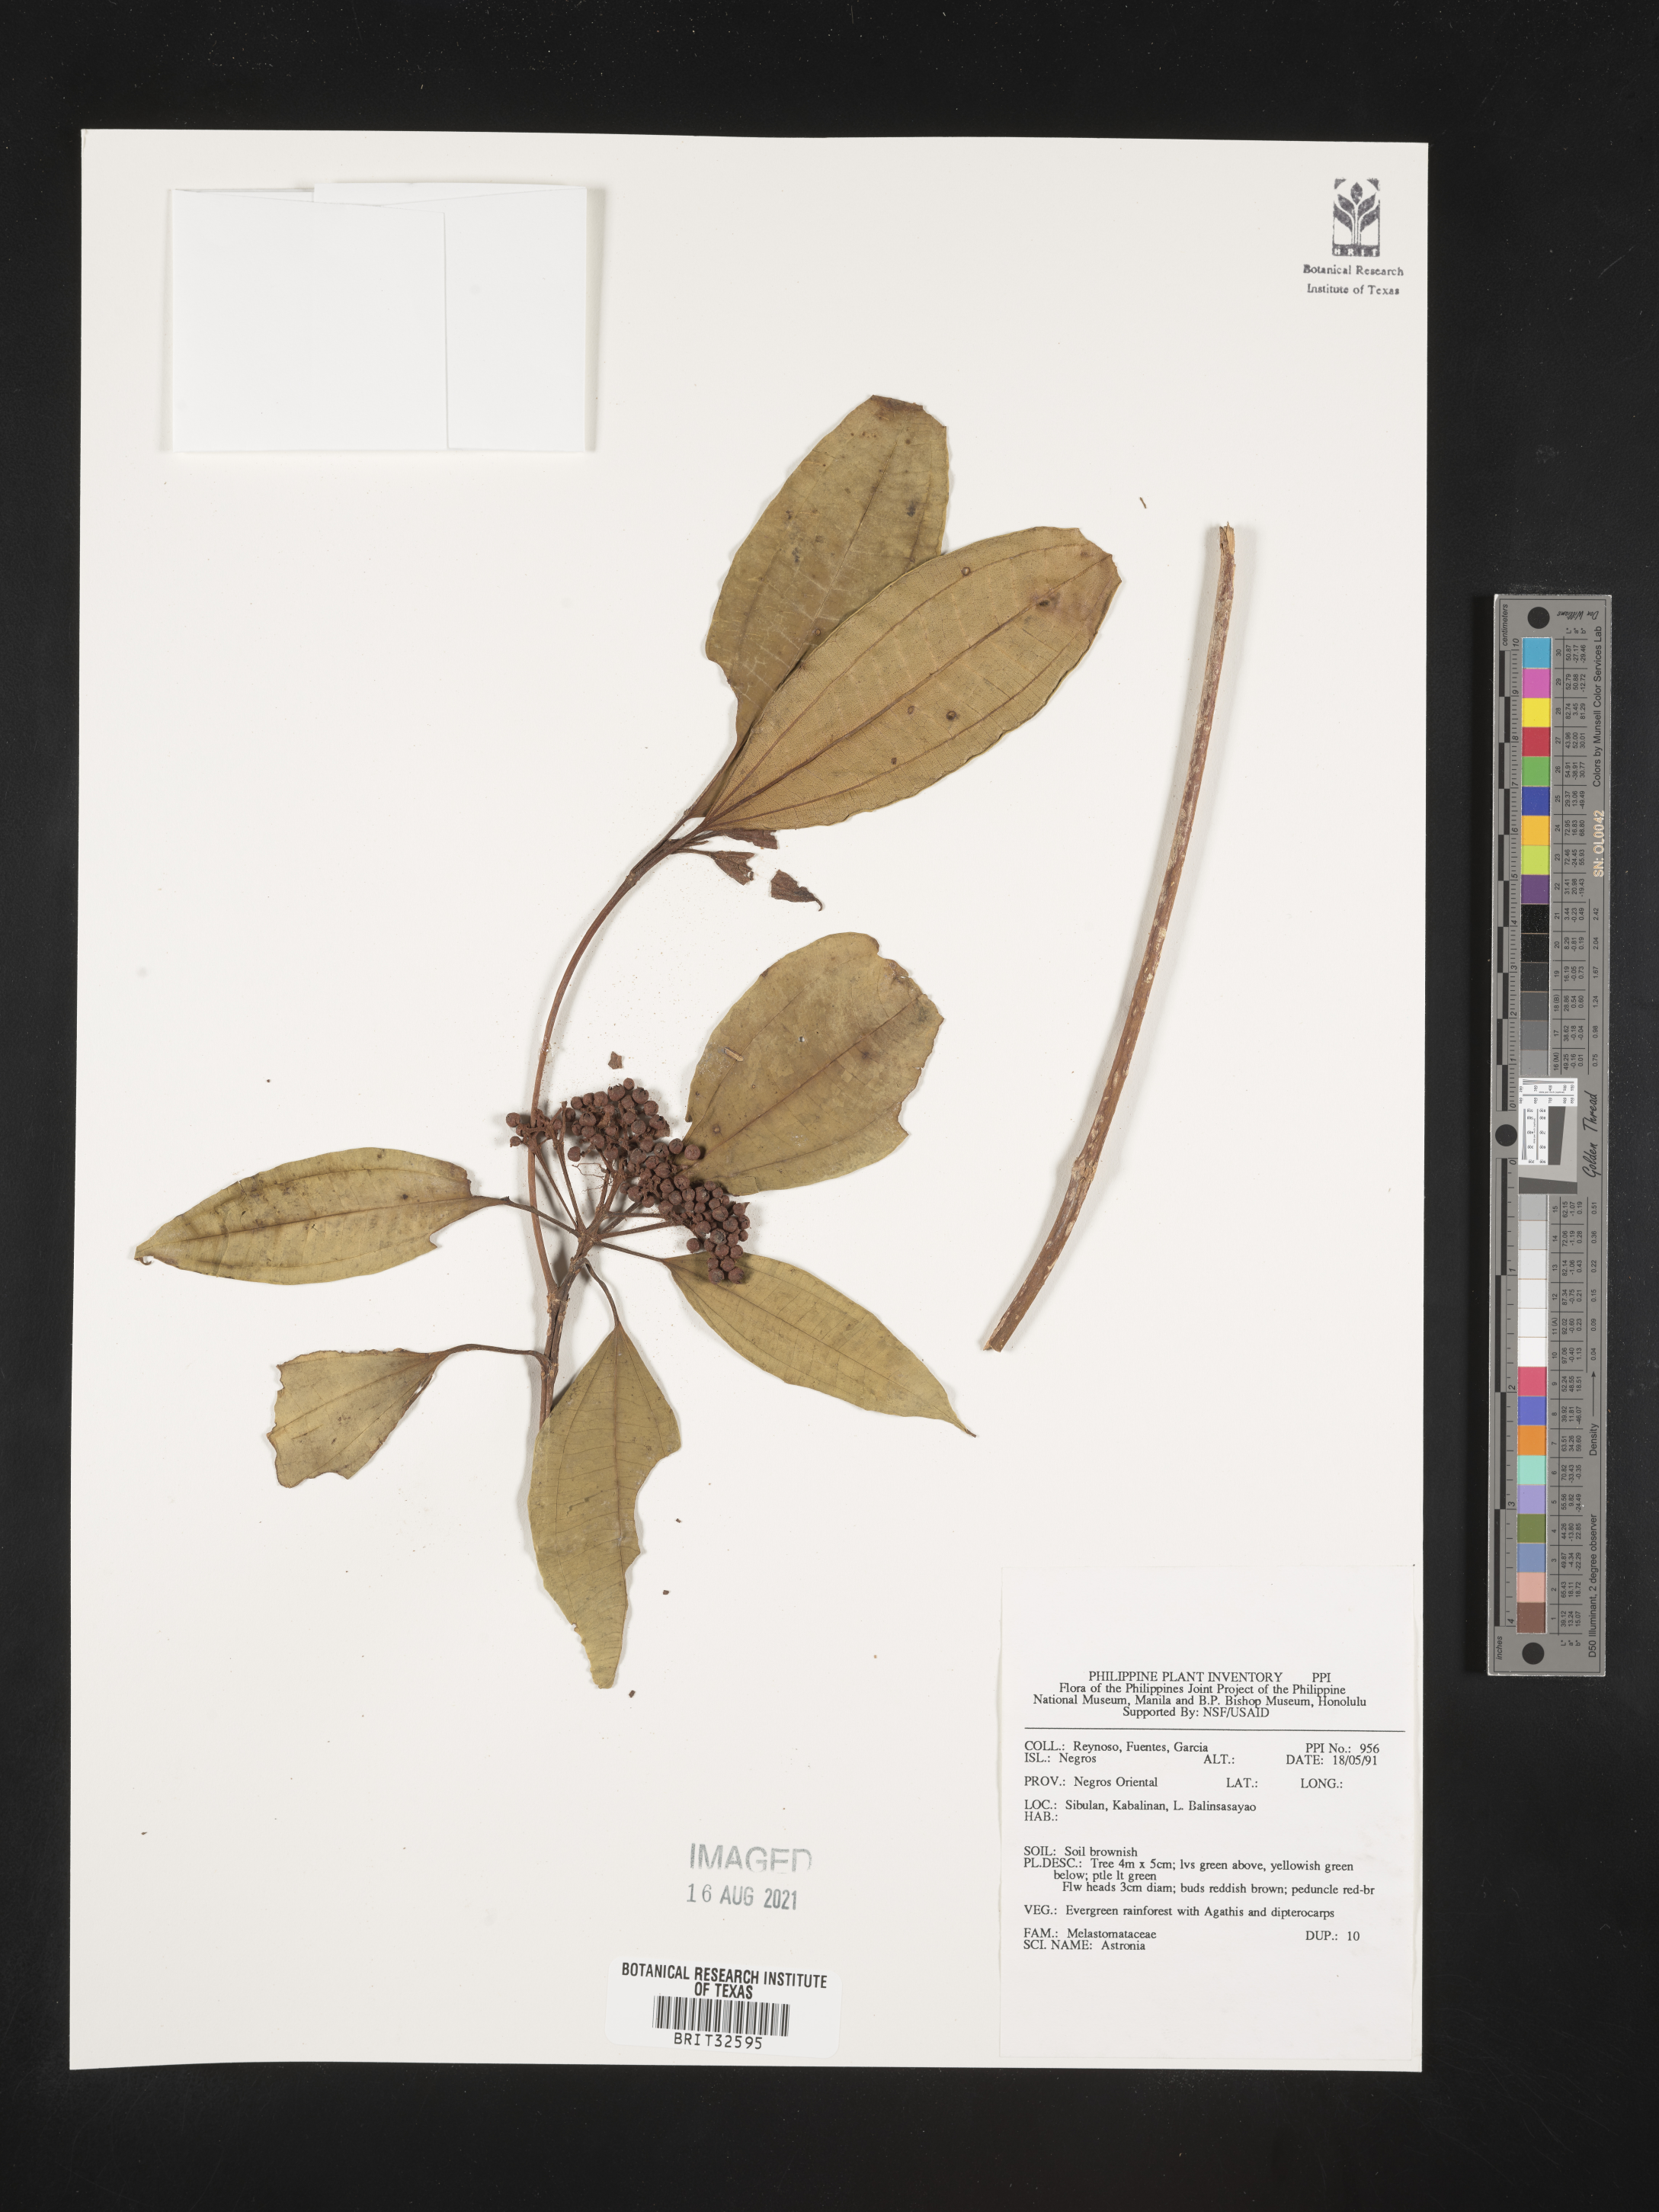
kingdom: Plantae
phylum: Tracheophyta
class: Magnoliopsida
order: Myrtales
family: Melastomataceae
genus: Astronia
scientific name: Astronia
